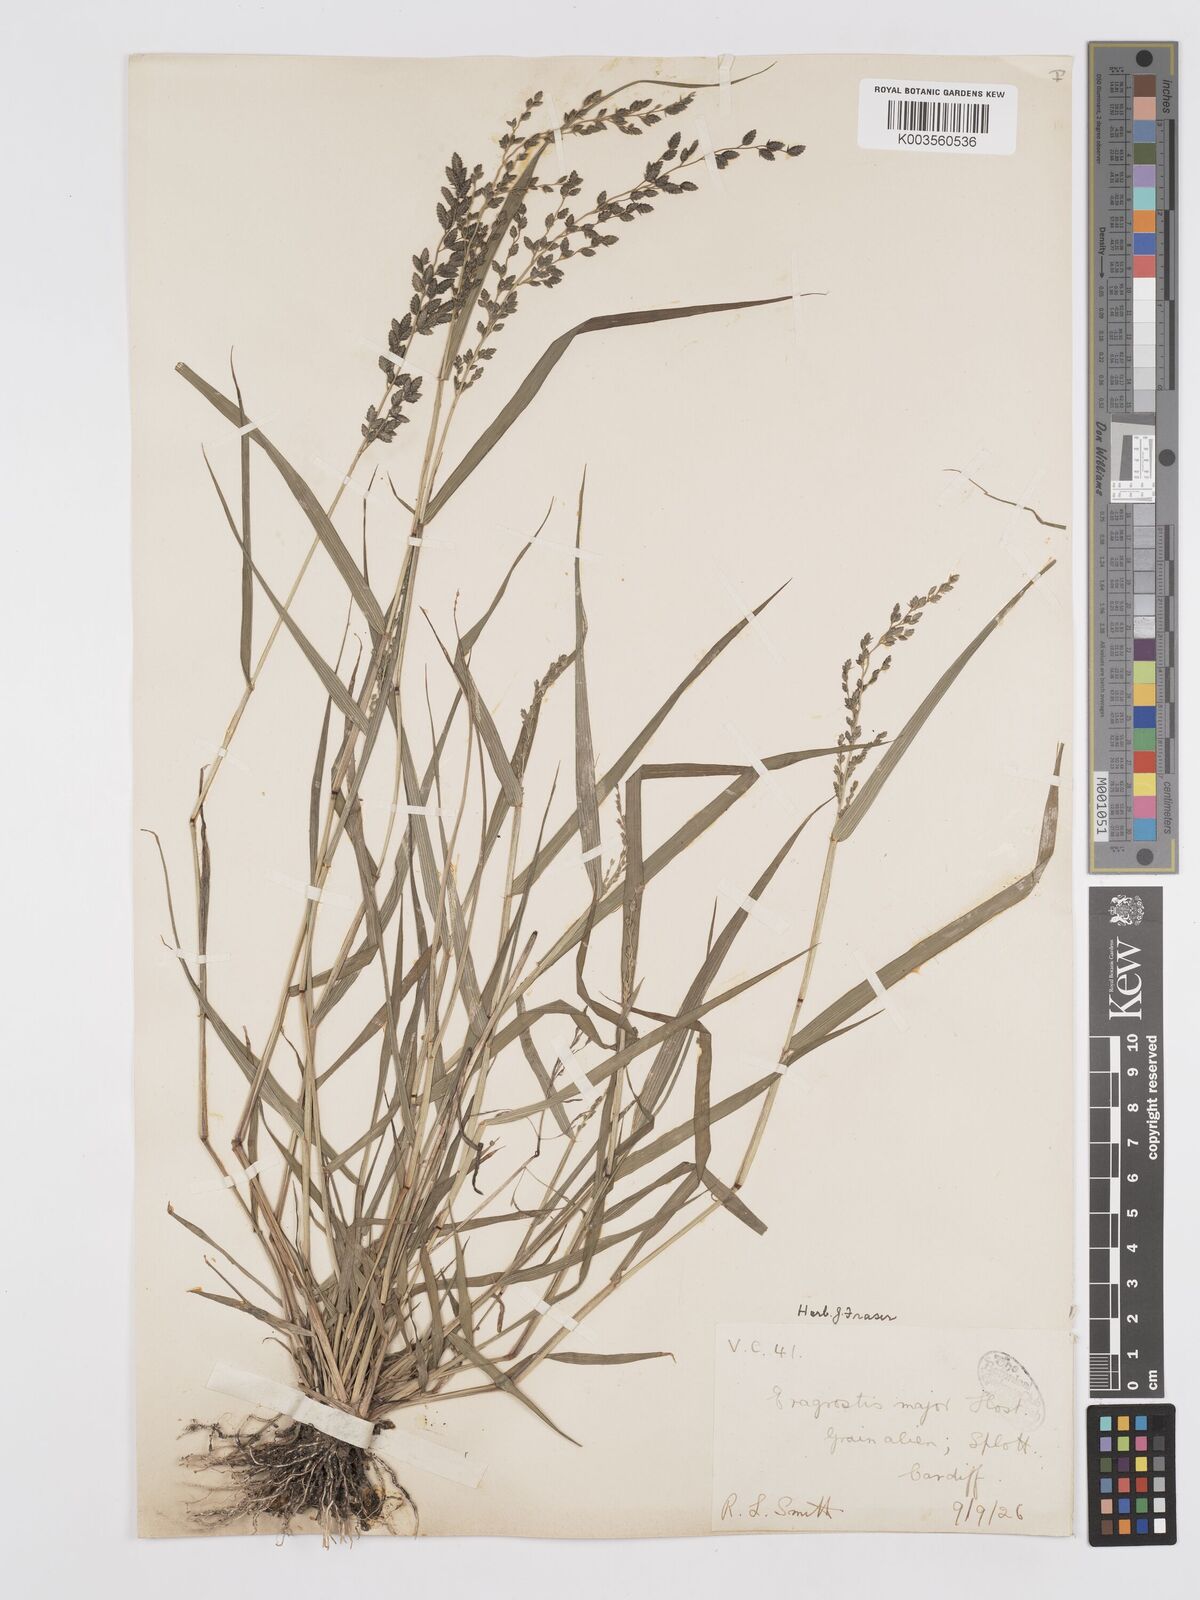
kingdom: Plantae
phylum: Tracheophyta
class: Liliopsida
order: Poales
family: Poaceae
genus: Eragrostis
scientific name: Eragrostis cilianensis
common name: Stinkgrass
